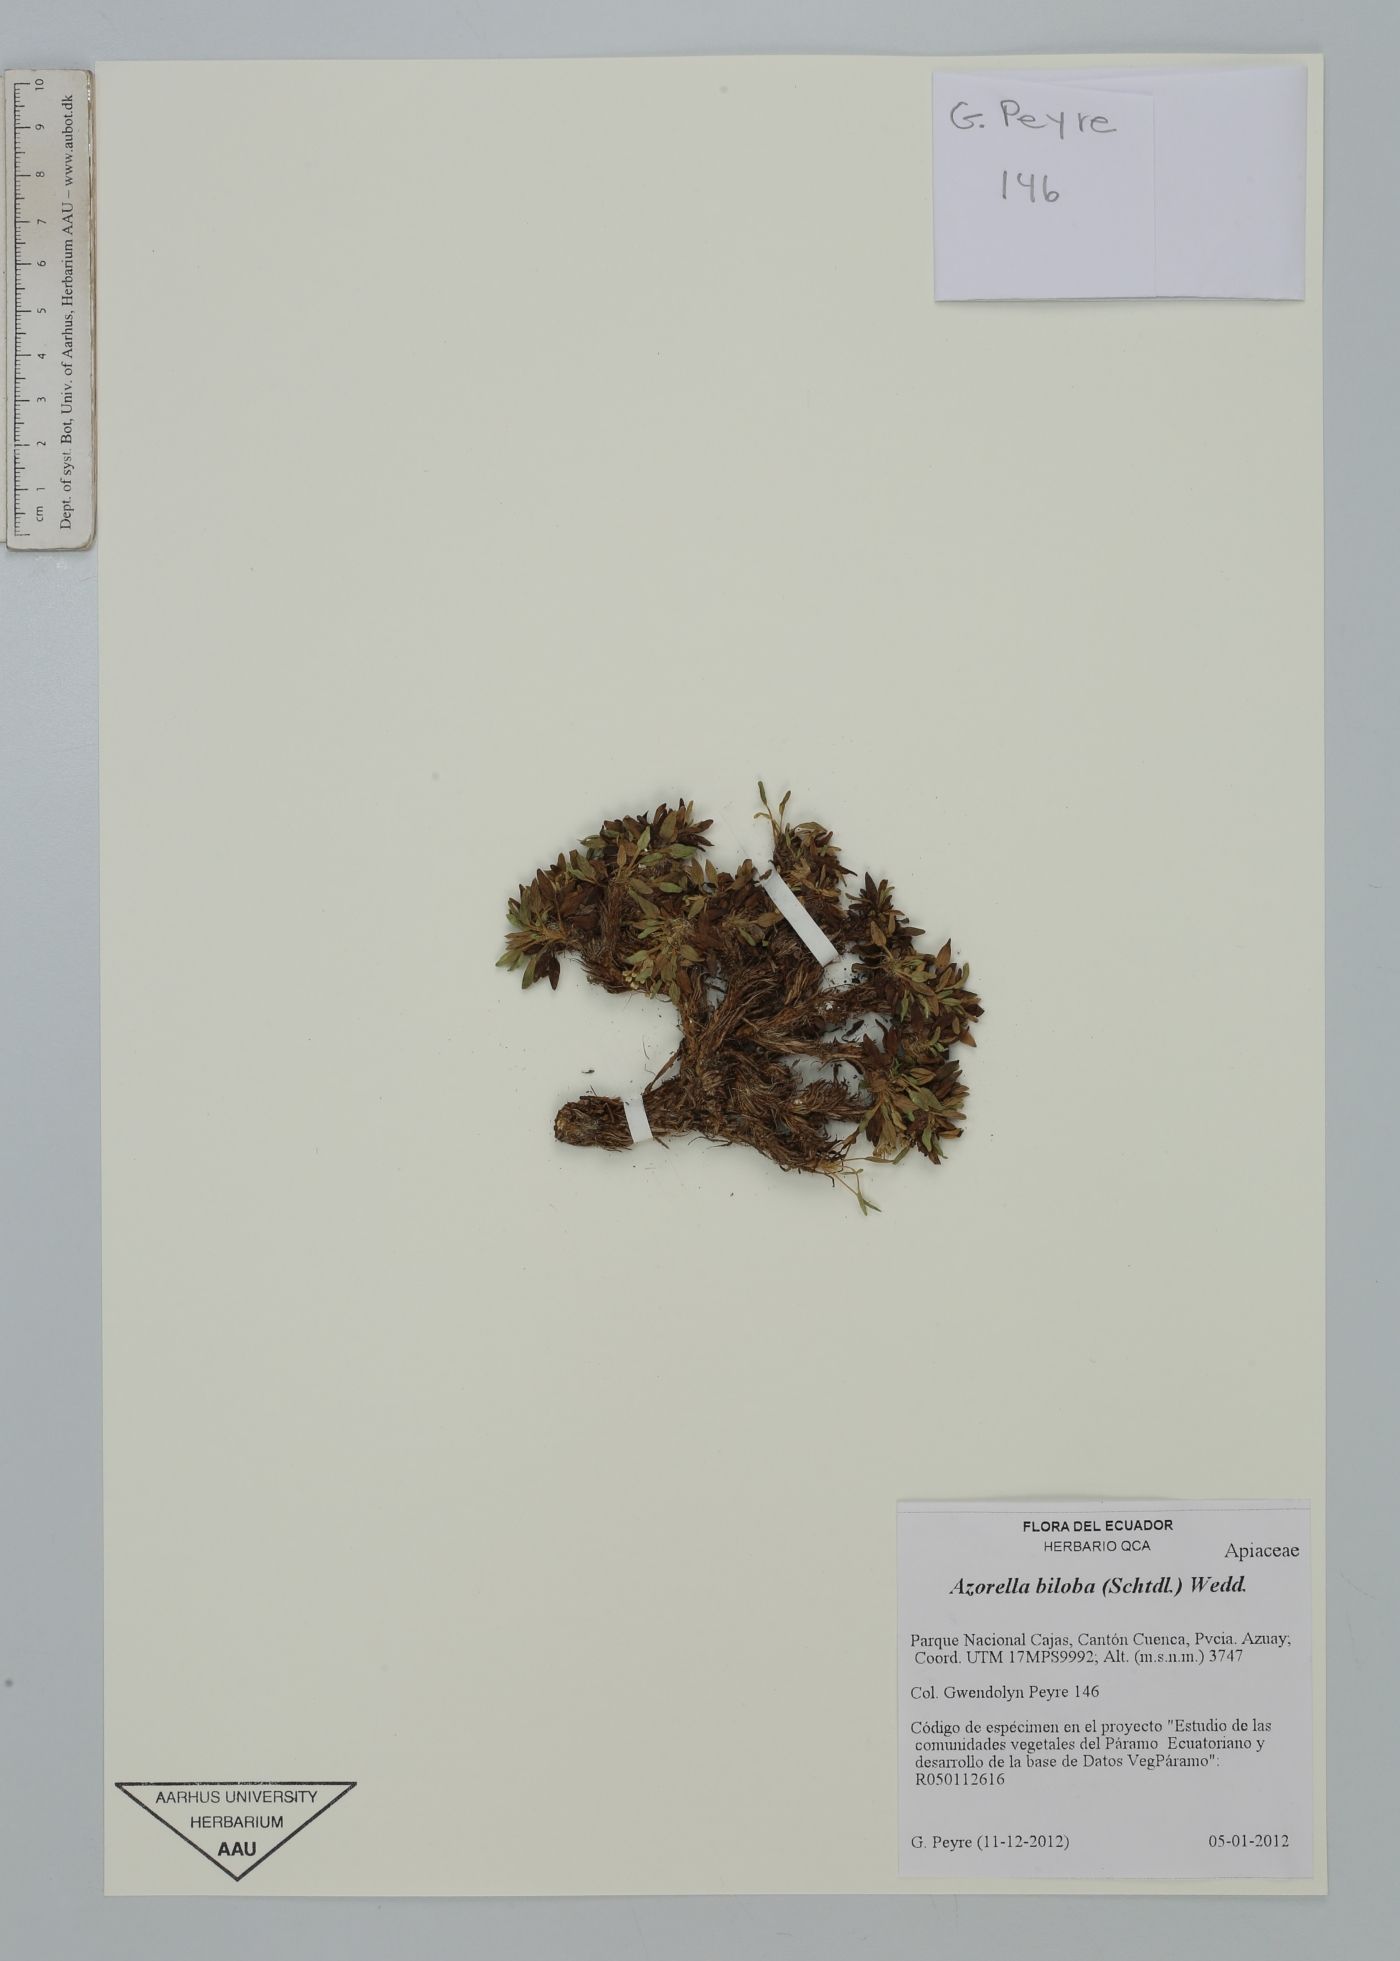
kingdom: Plantae
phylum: Tracheophyta
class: Magnoliopsida
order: Apiales
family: Apiaceae
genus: Azorella
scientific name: Azorella biloba
